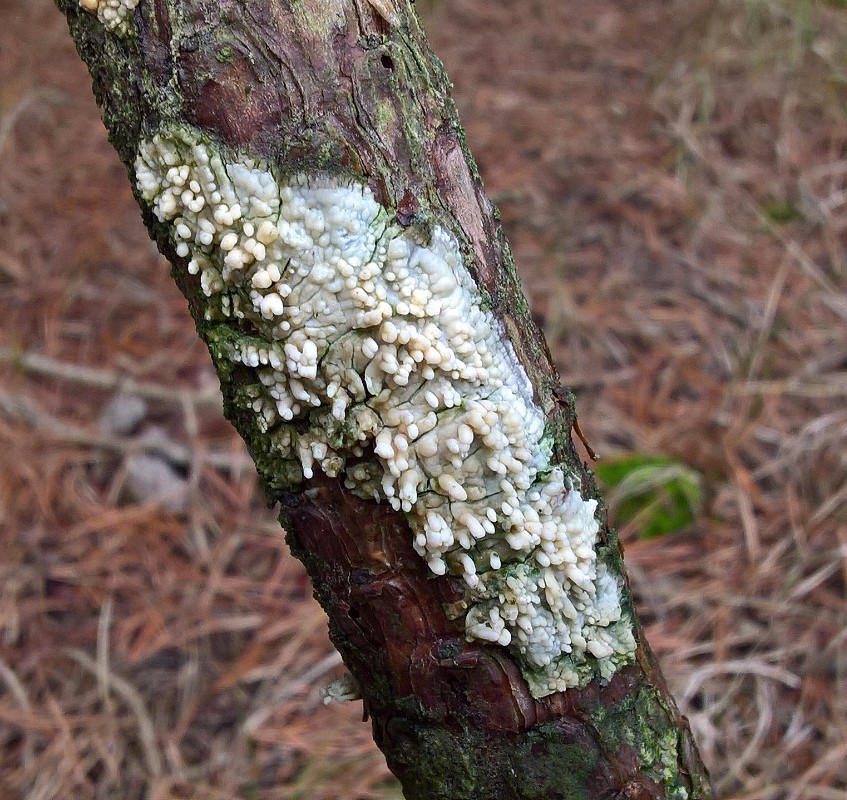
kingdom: Fungi
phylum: Basidiomycota
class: Agaricomycetes
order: Hymenochaetales
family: Schizoporaceae
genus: Xylodon
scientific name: Xylodon radula
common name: grovtandet kalkskind
